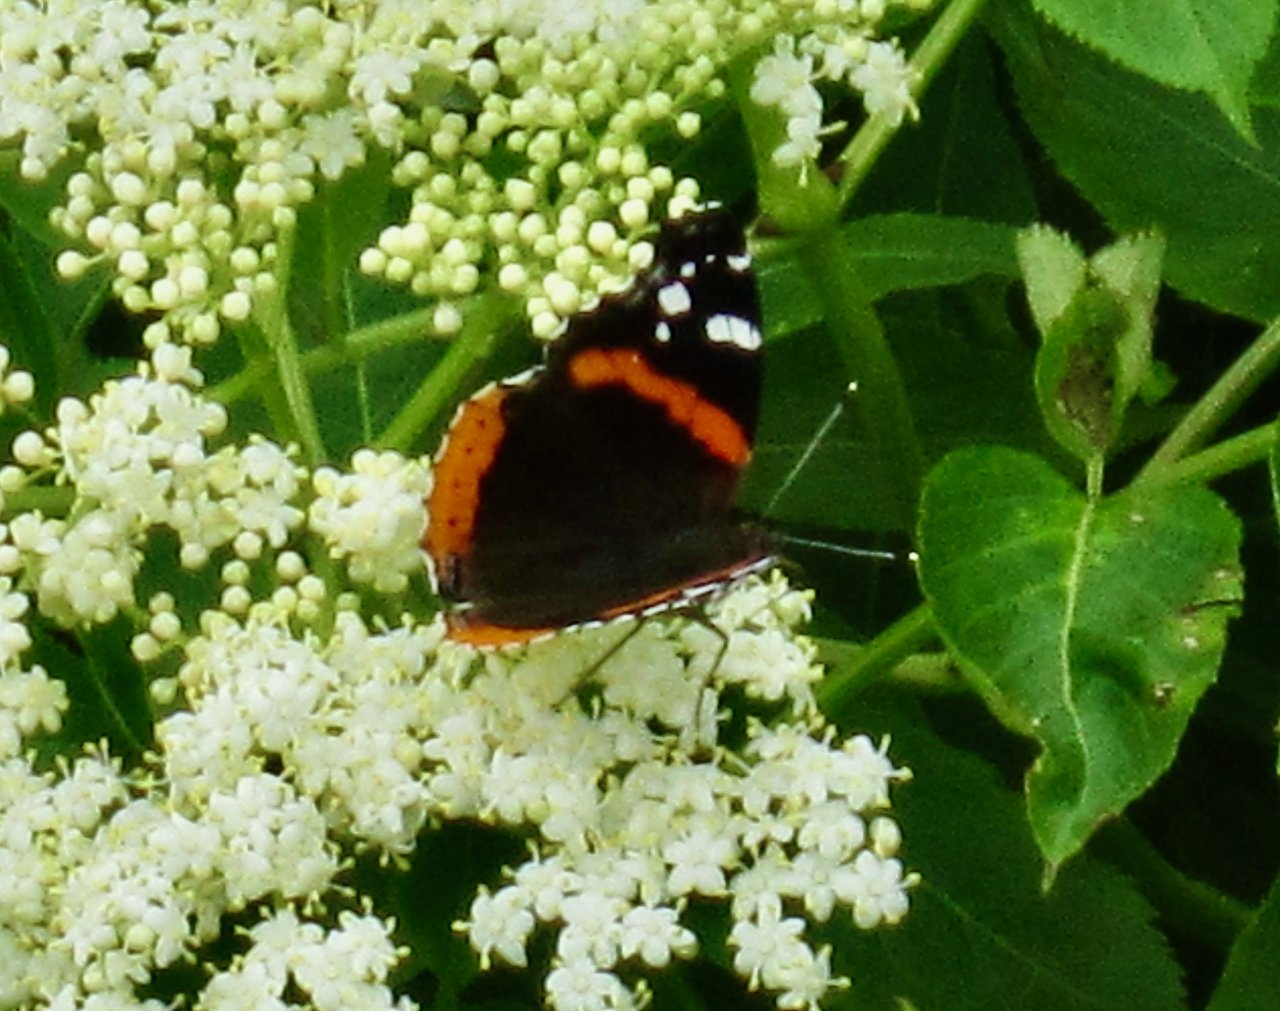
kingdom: Animalia
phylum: Arthropoda
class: Insecta
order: Lepidoptera
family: Nymphalidae
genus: Vanessa
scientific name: Vanessa atalanta
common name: Red Admiral
